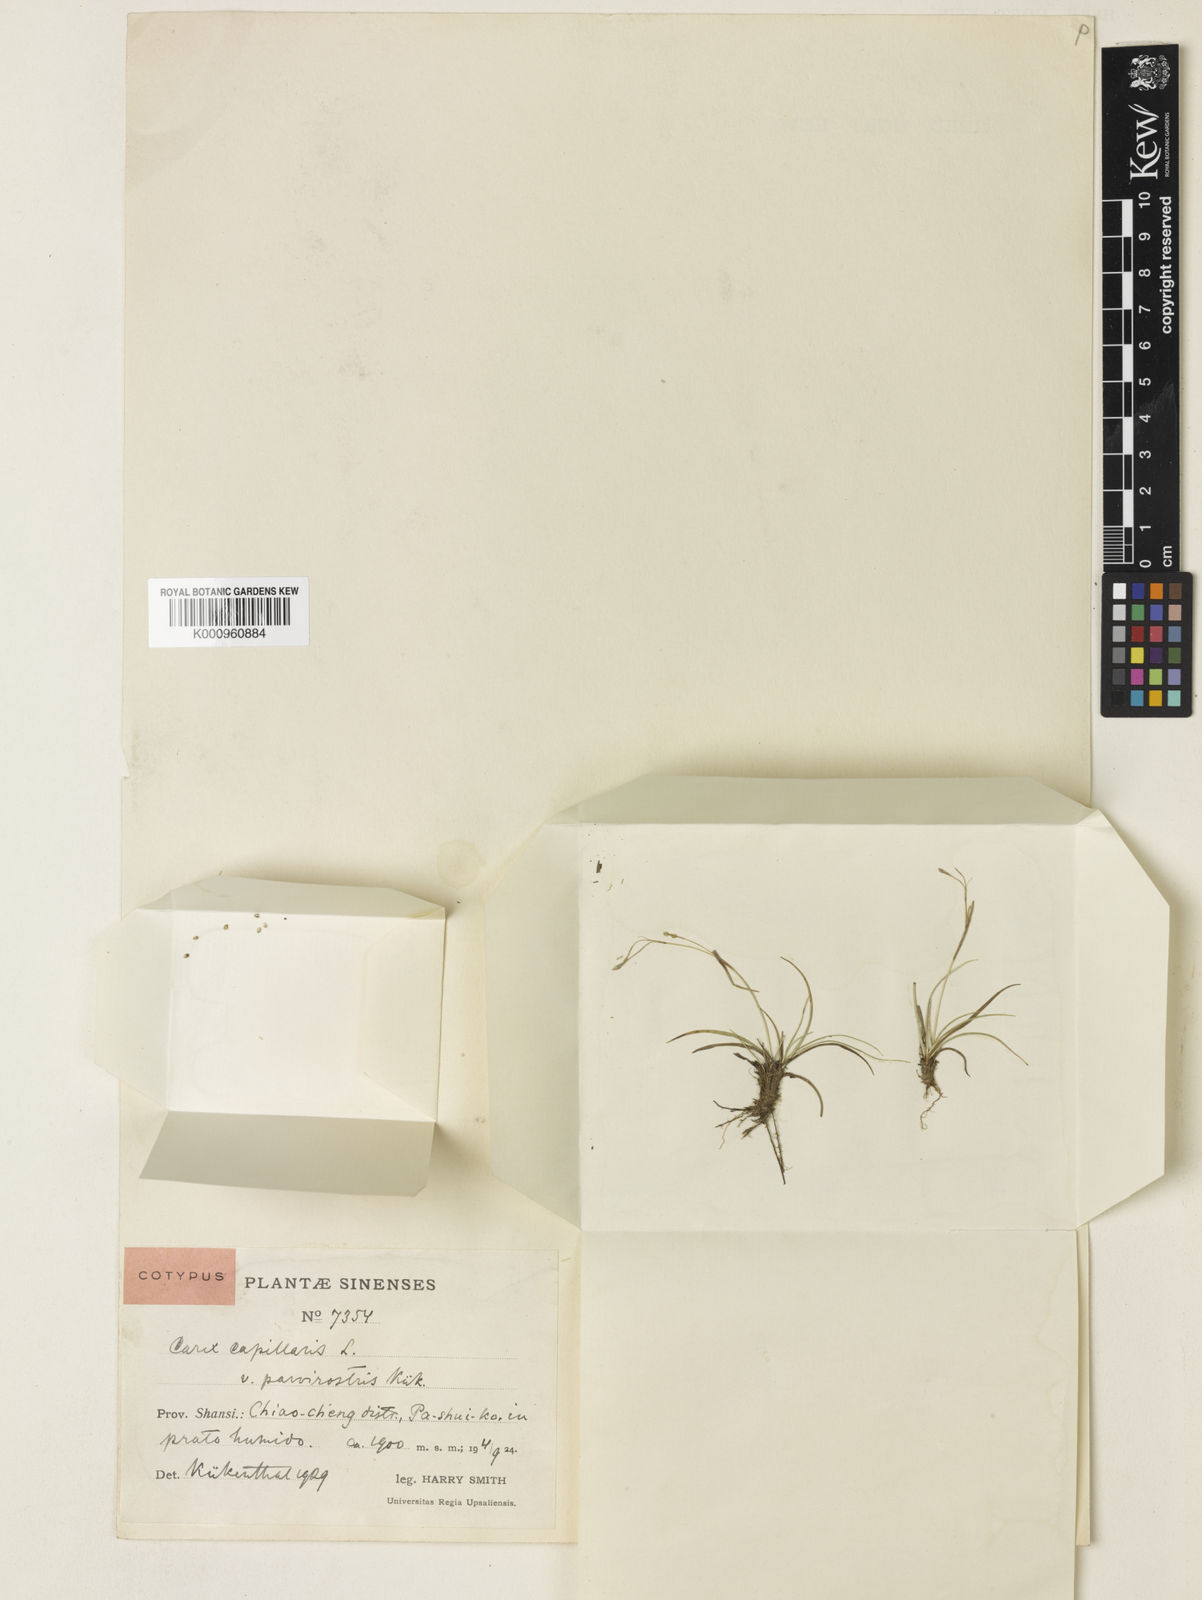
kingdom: Plantae
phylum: Tracheophyta
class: Liliopsida
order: Poales
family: Cyperaceae
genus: Carex
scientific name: Carex capillaris
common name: Hair sedge
